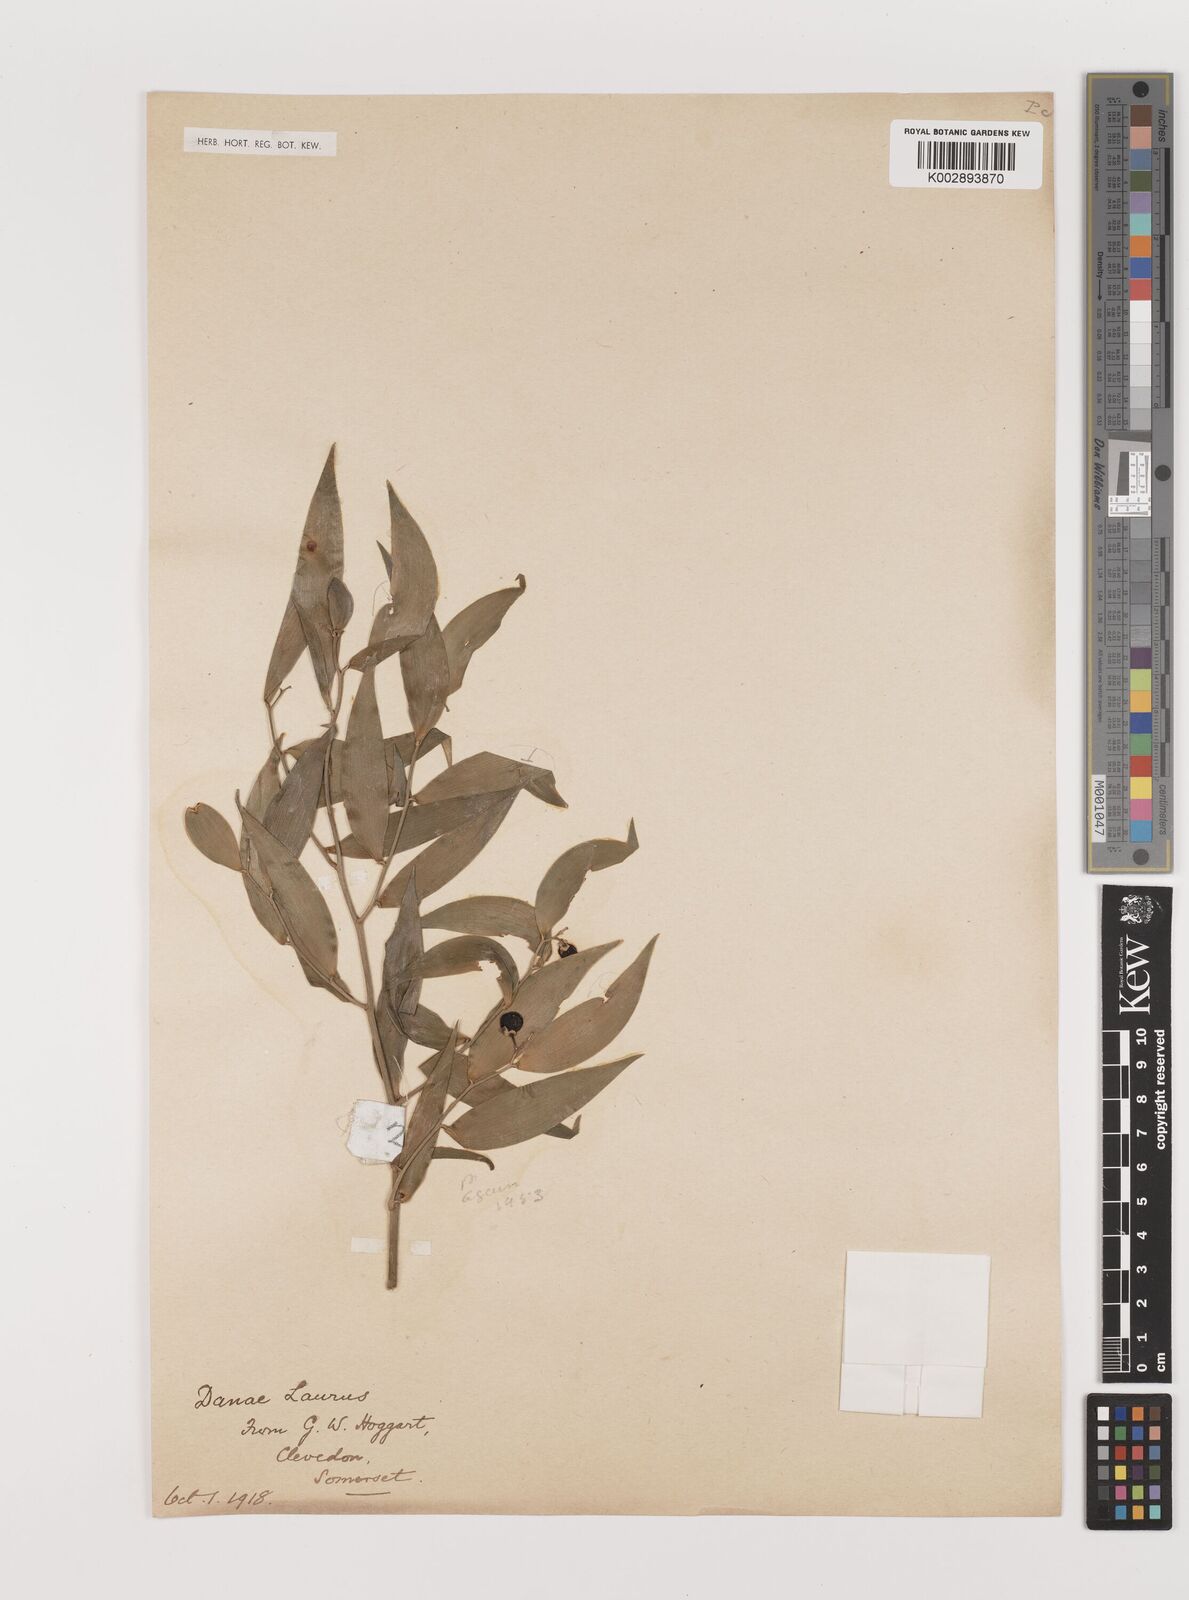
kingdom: Plantae
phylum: Tracheophyta
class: Liliopsida
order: Asparagales
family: Asparagaceae
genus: Danae
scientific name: Danae racemosa
